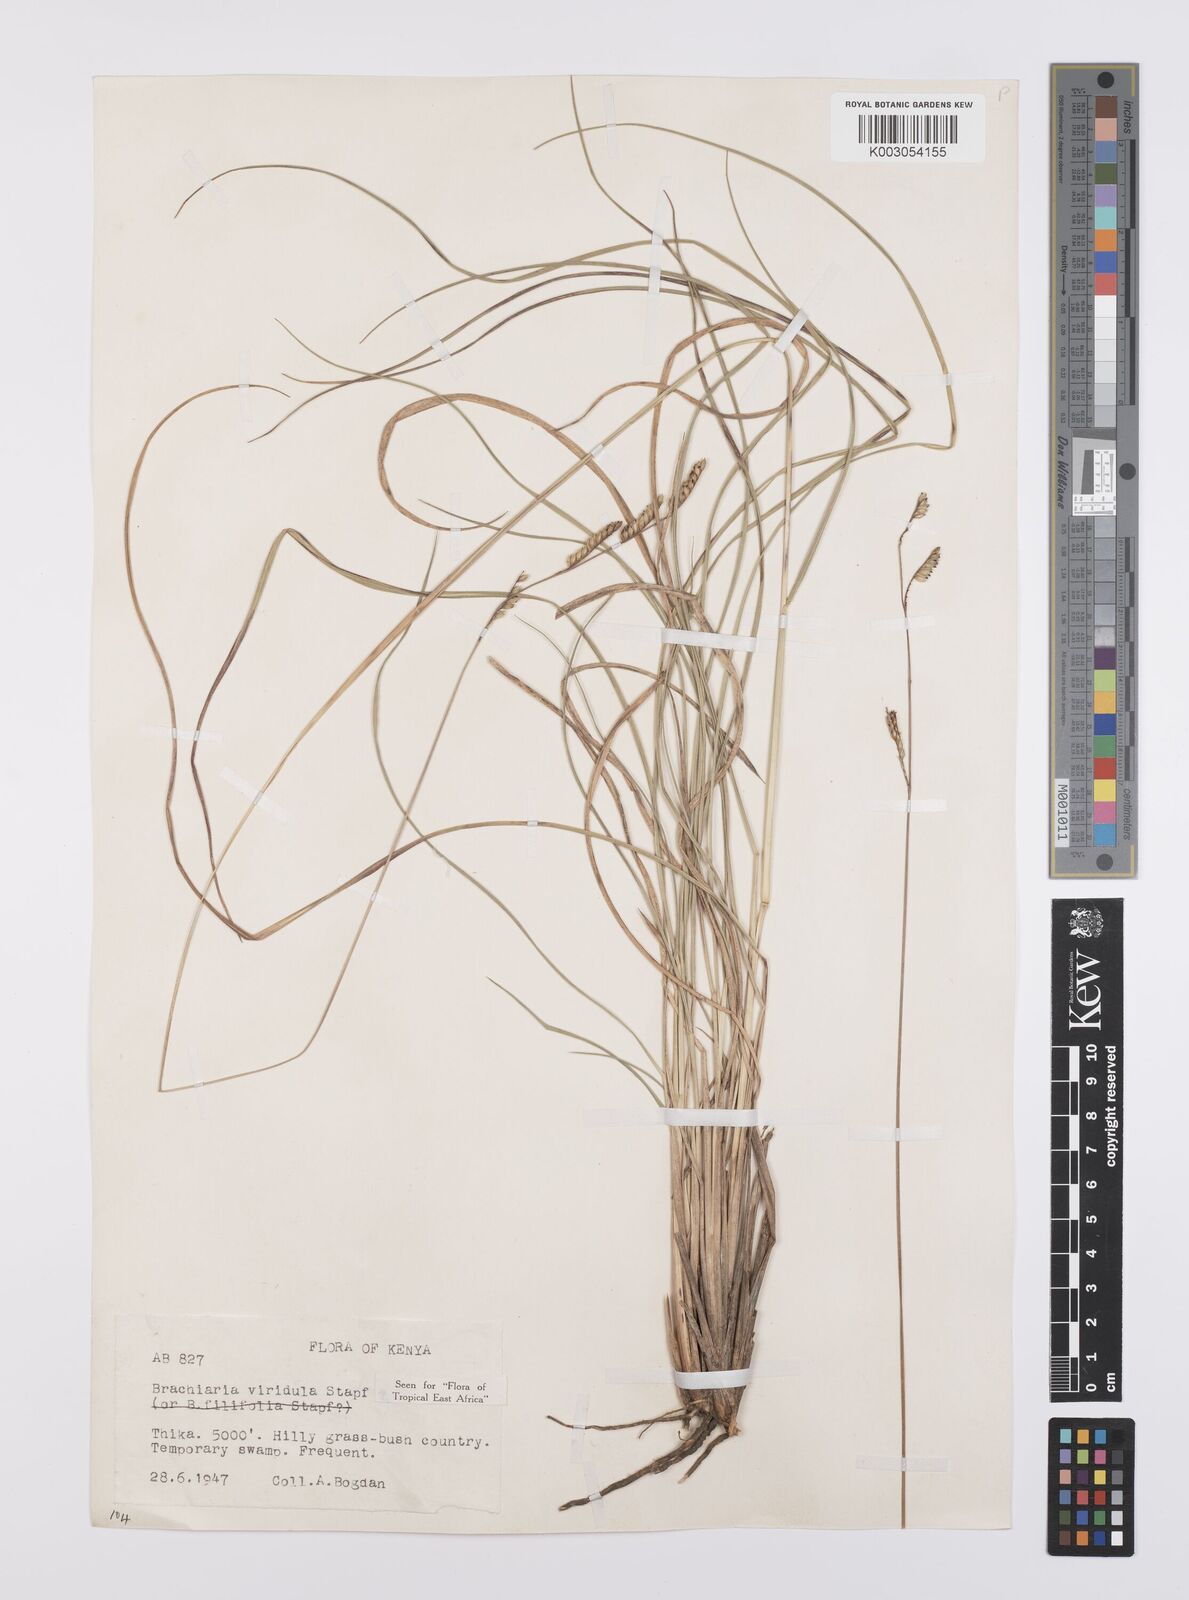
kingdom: Plantae
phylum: Tracheophyta
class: Liliopsida
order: Poales
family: Poaceae
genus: Urochloa
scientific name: Urochloa bovonei
